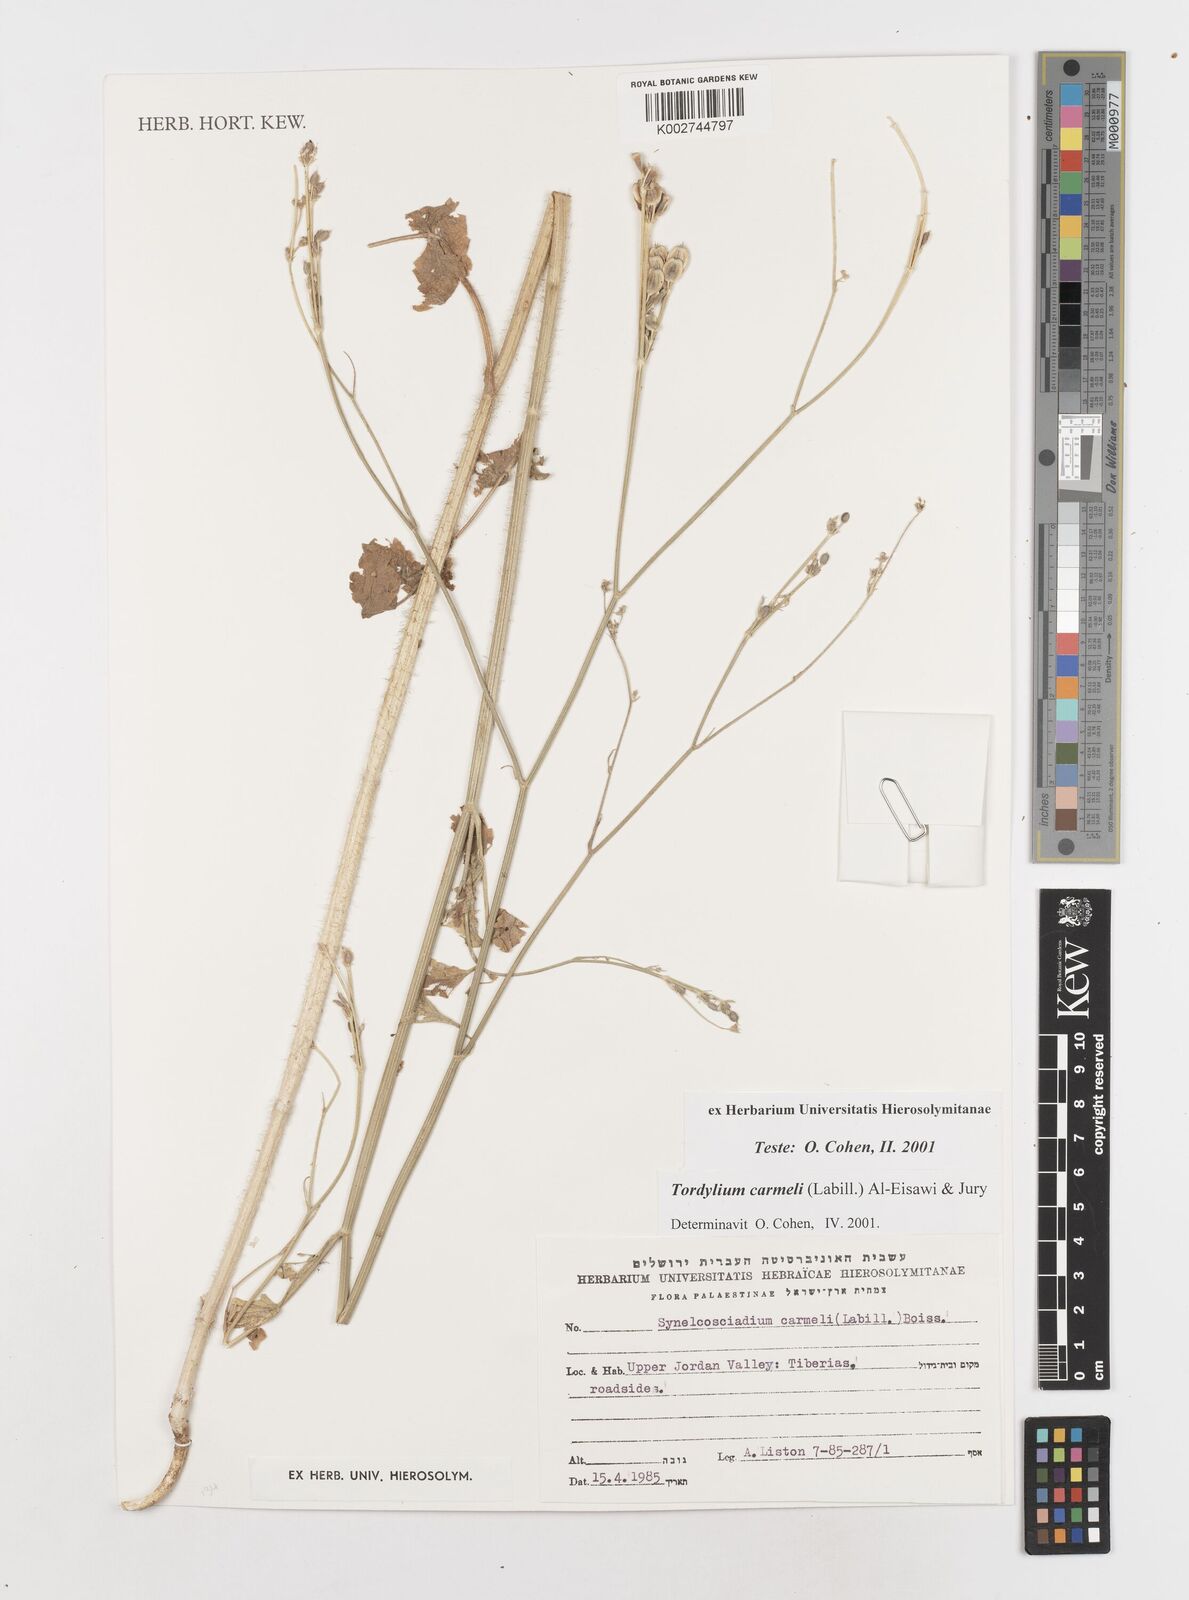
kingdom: Plantae
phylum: Tracheophyta
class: Magnoliopsida
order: Apiales
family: Apiaceae
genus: Ainsworthia
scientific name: Ainsworthia cordata
